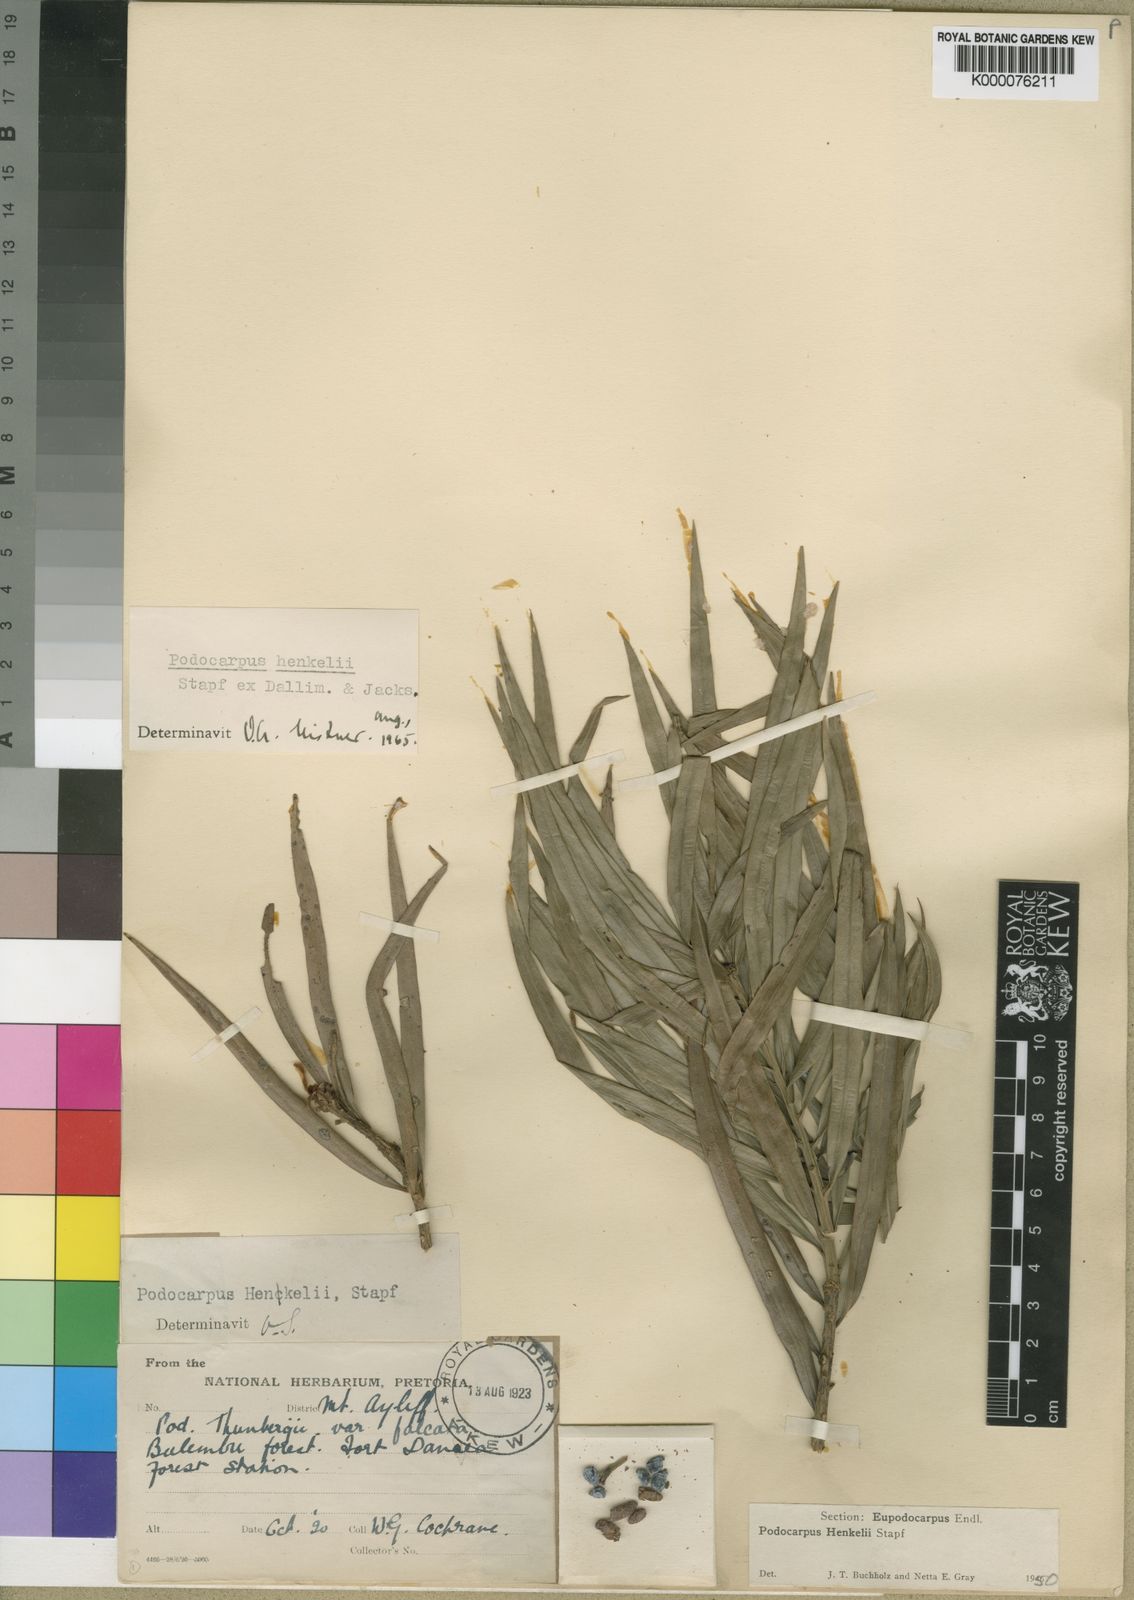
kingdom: Plantae
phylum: Tracheophyta
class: Pinopsida
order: Pinales
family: Podocarpaceae
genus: Podocarpus
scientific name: Podocarpus henkelii
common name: Henkel's yellowwood
